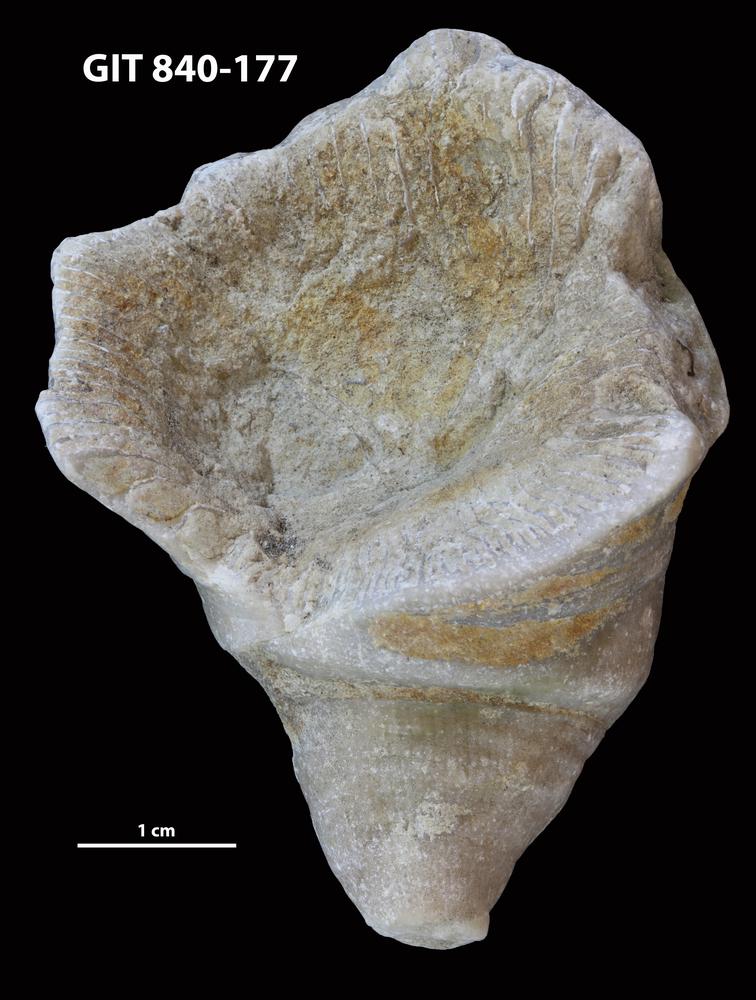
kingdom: Animalia
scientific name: Animalia
